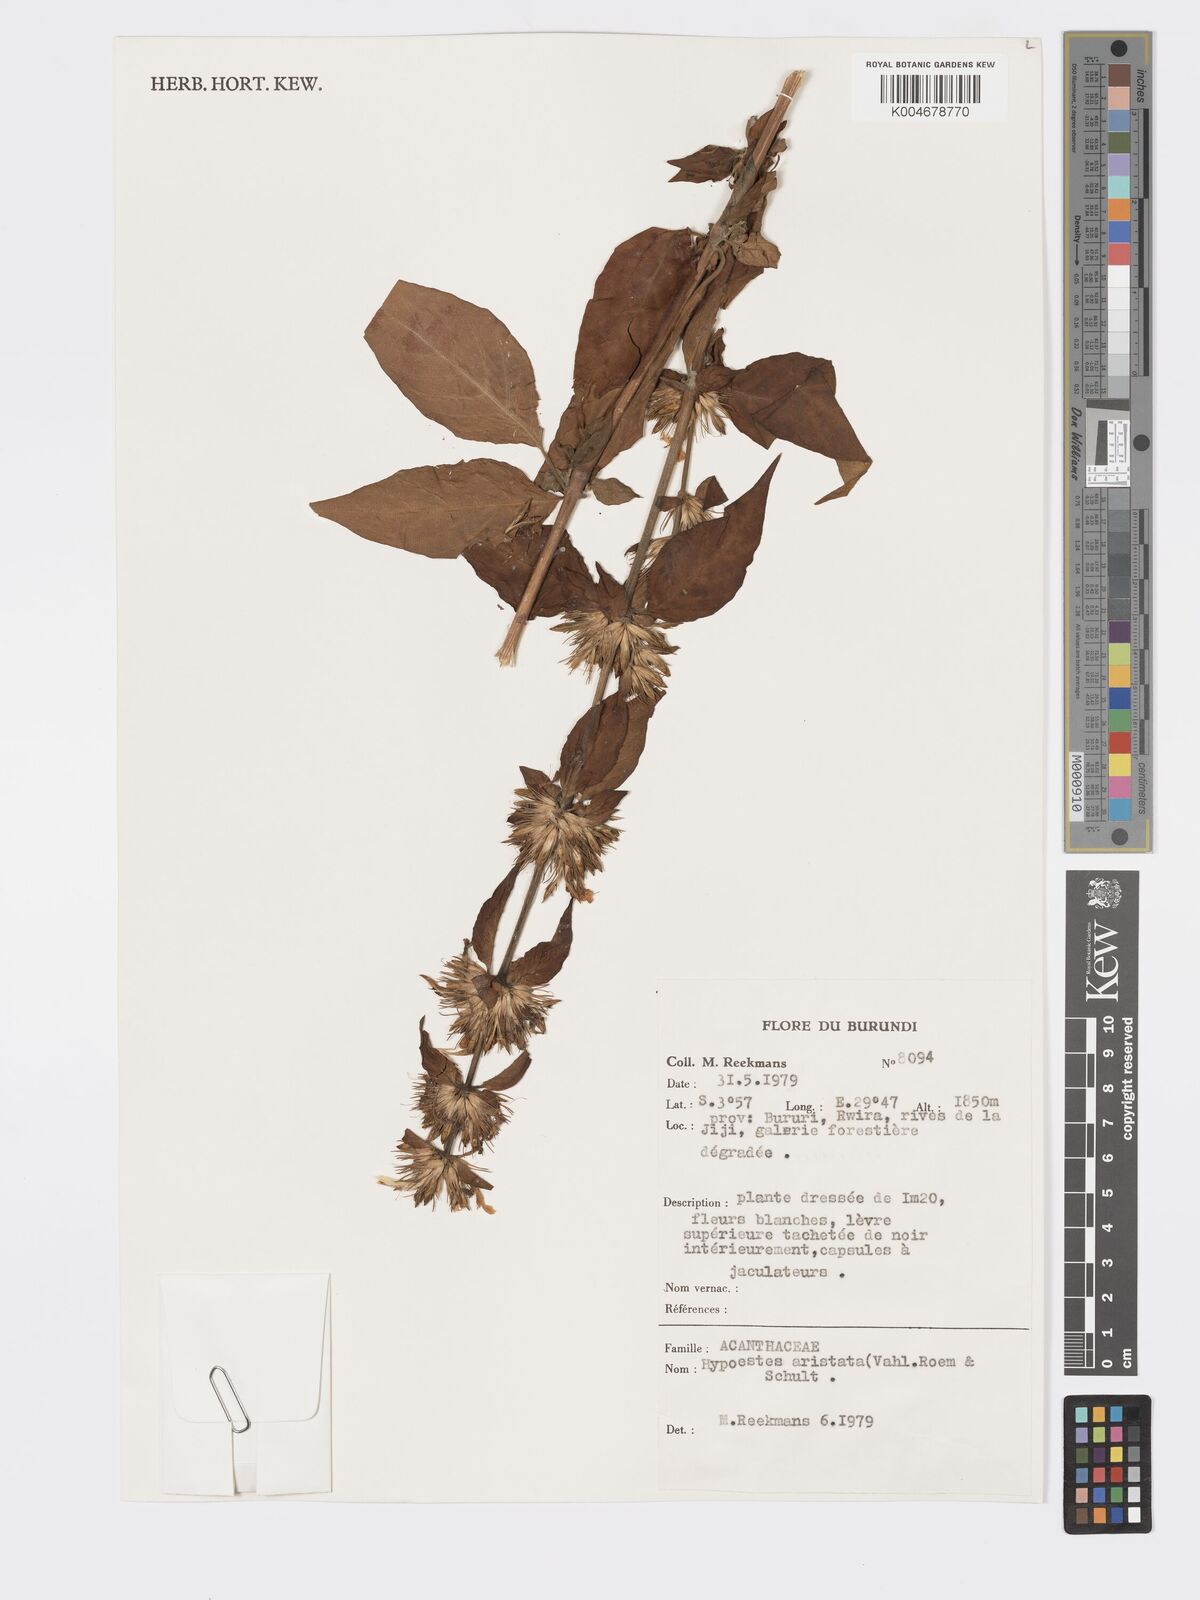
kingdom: Plantae
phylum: Tracheophyta
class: Magnoliopsida
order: Lamiales
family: Acanthaceae
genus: Hypoestes
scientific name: Hypoestes aristata
